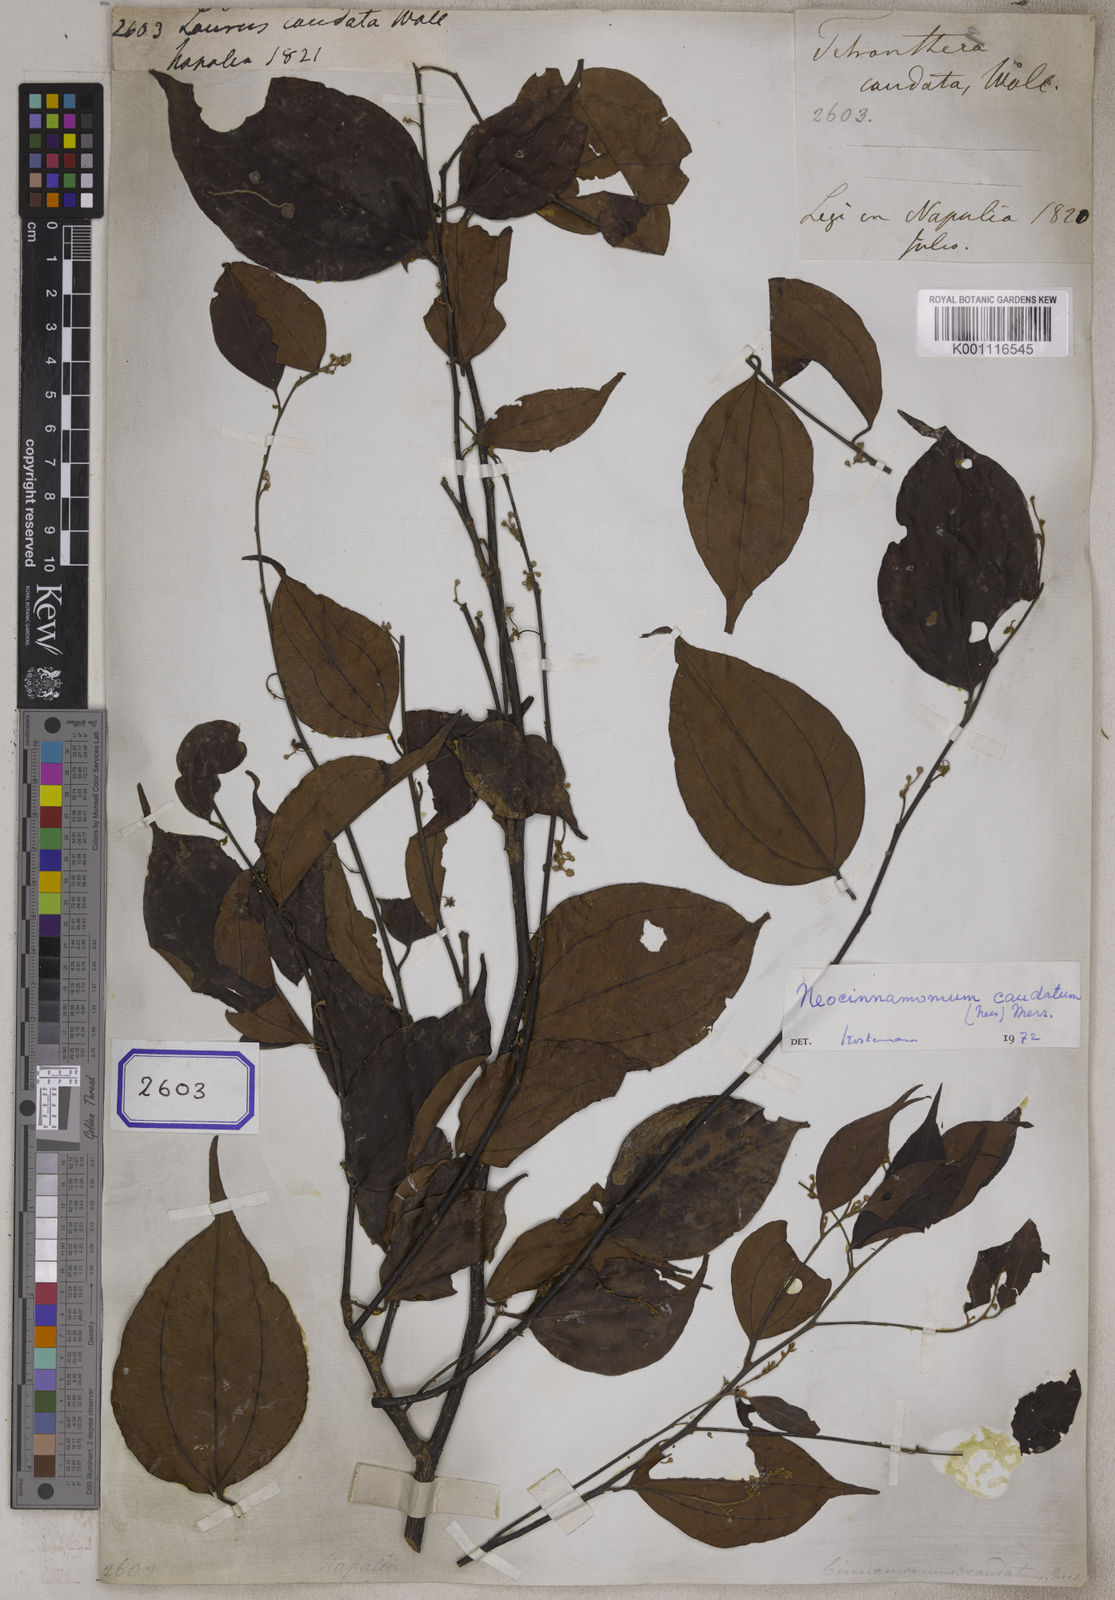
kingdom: Plantae
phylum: Tracheophyta
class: Magnoliopsida
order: Laurales
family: Lauraceae
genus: Neocinnamomum
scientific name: Neocinnamomum caudatum
